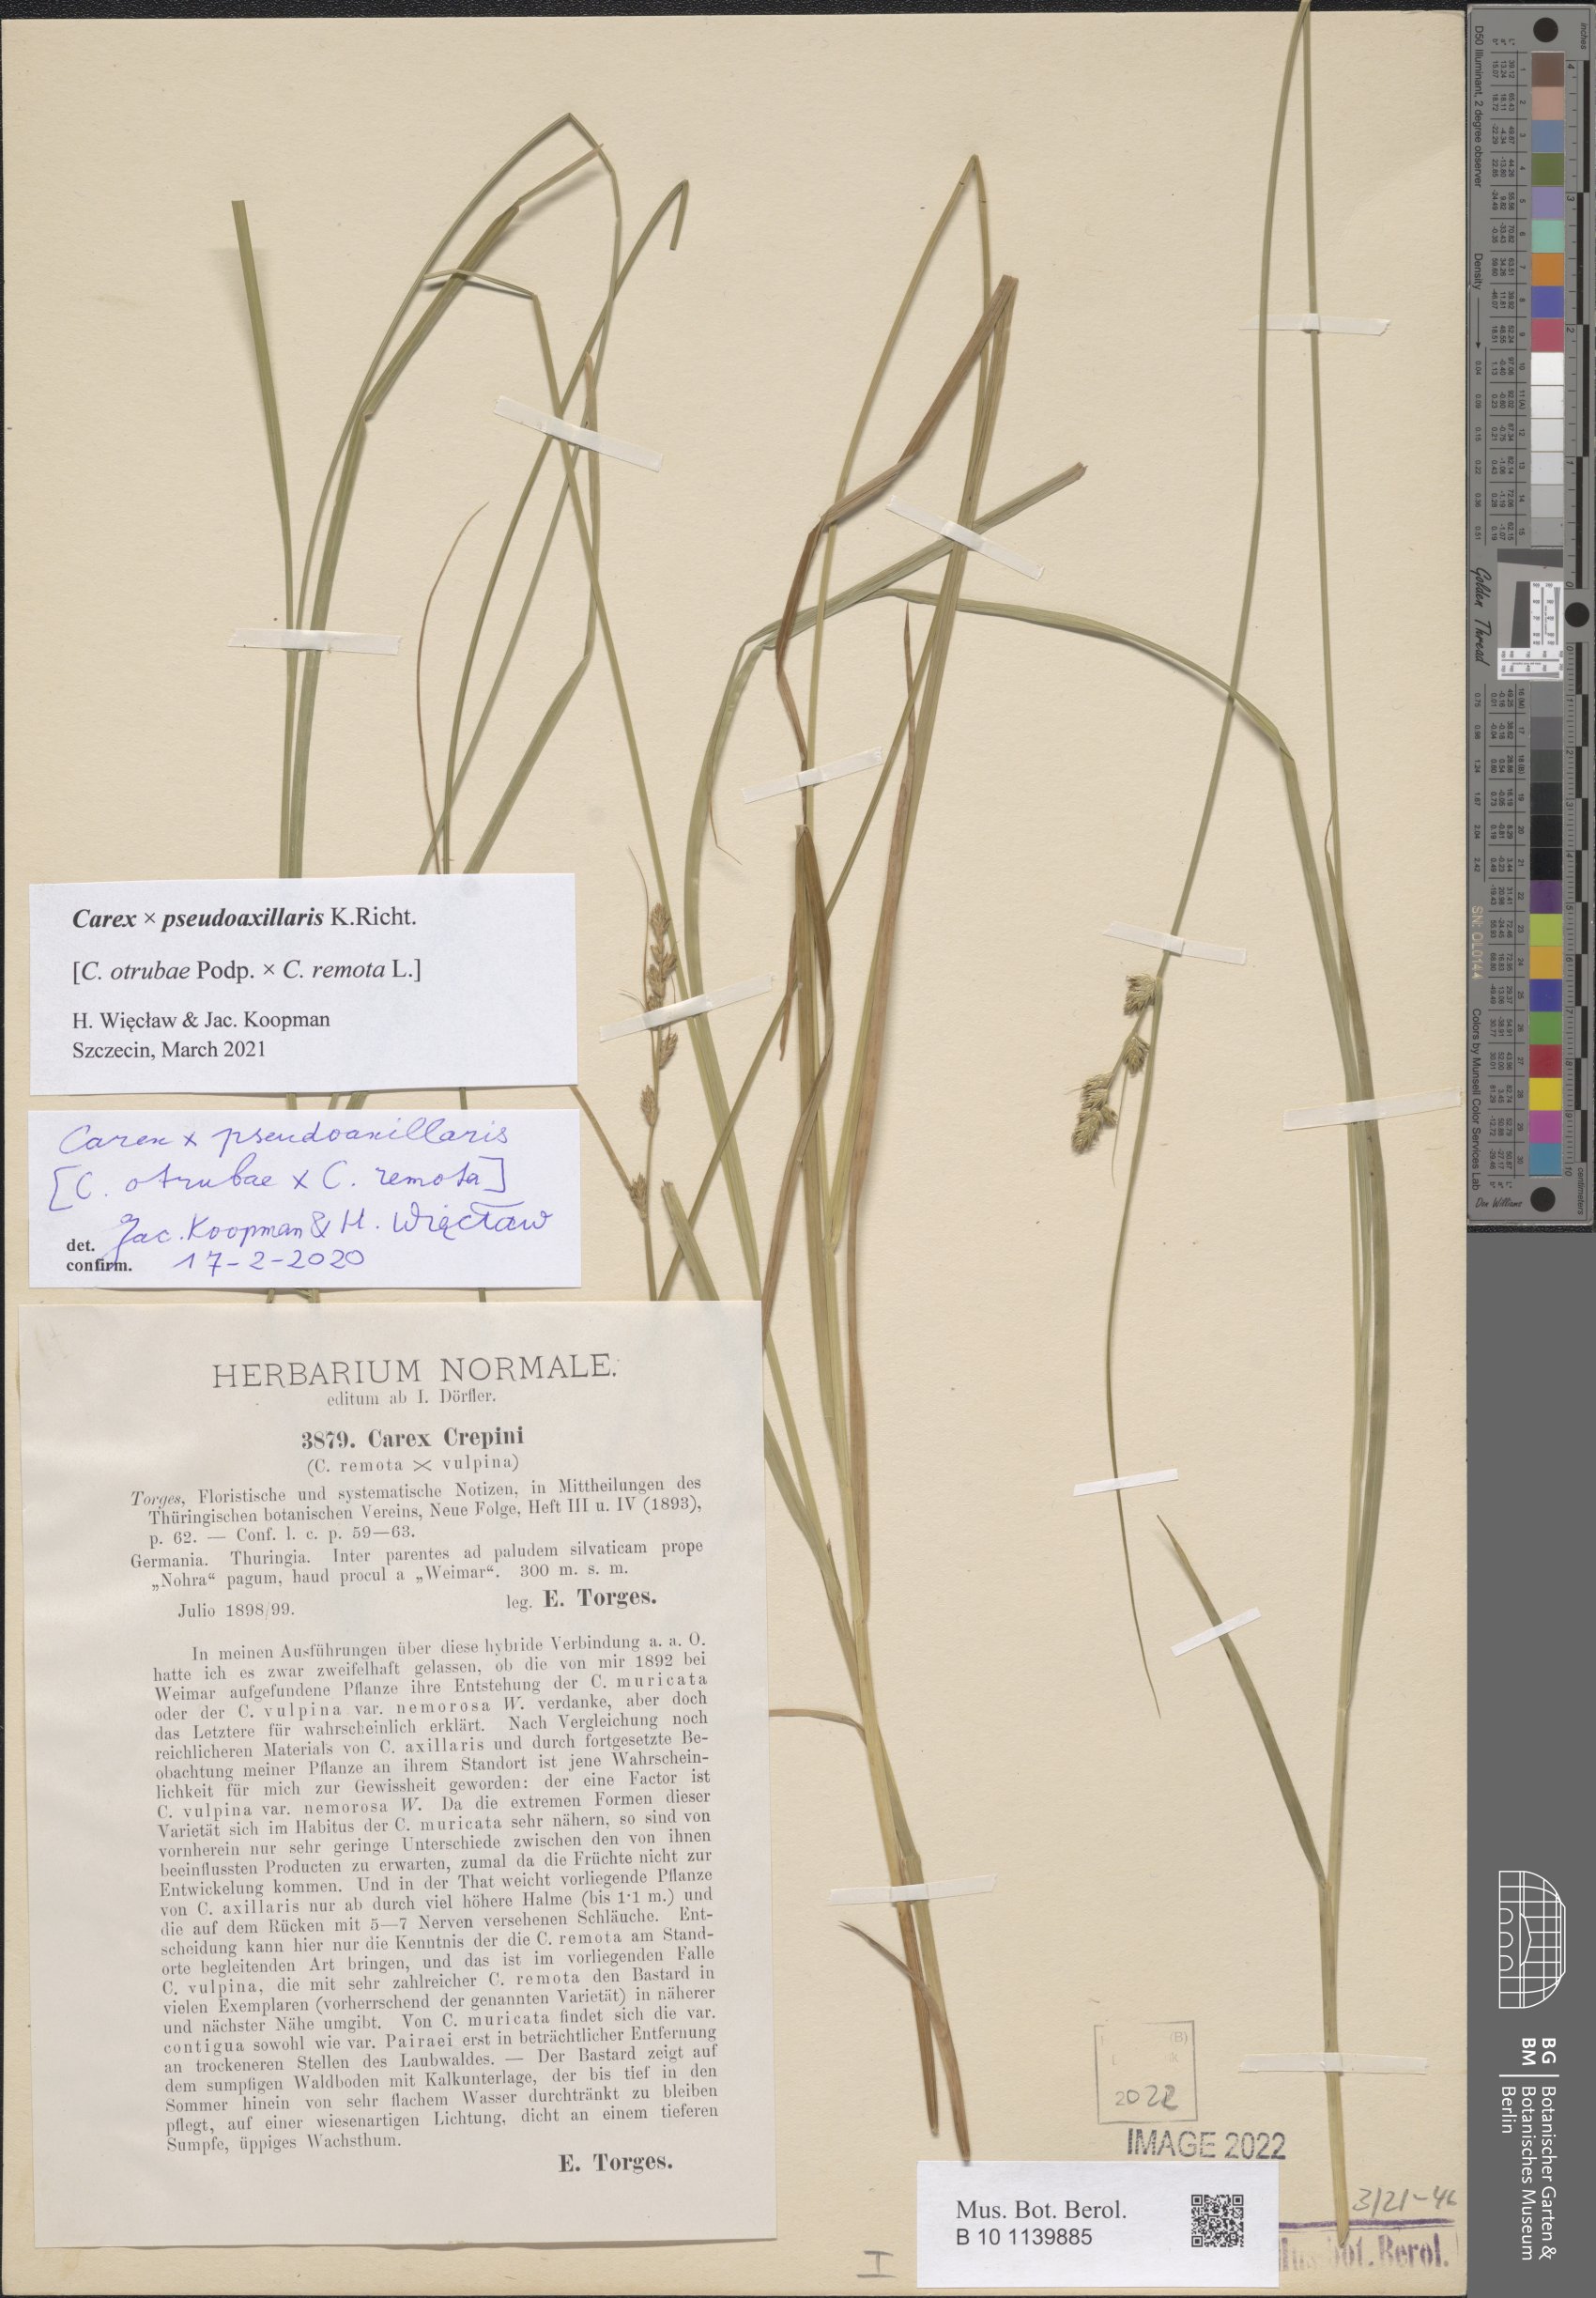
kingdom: Plantae
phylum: Tracheophyta
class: Liliopsida
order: Poales
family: Cyperaceae
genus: Carex
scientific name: Carex pseudoaxillaris
